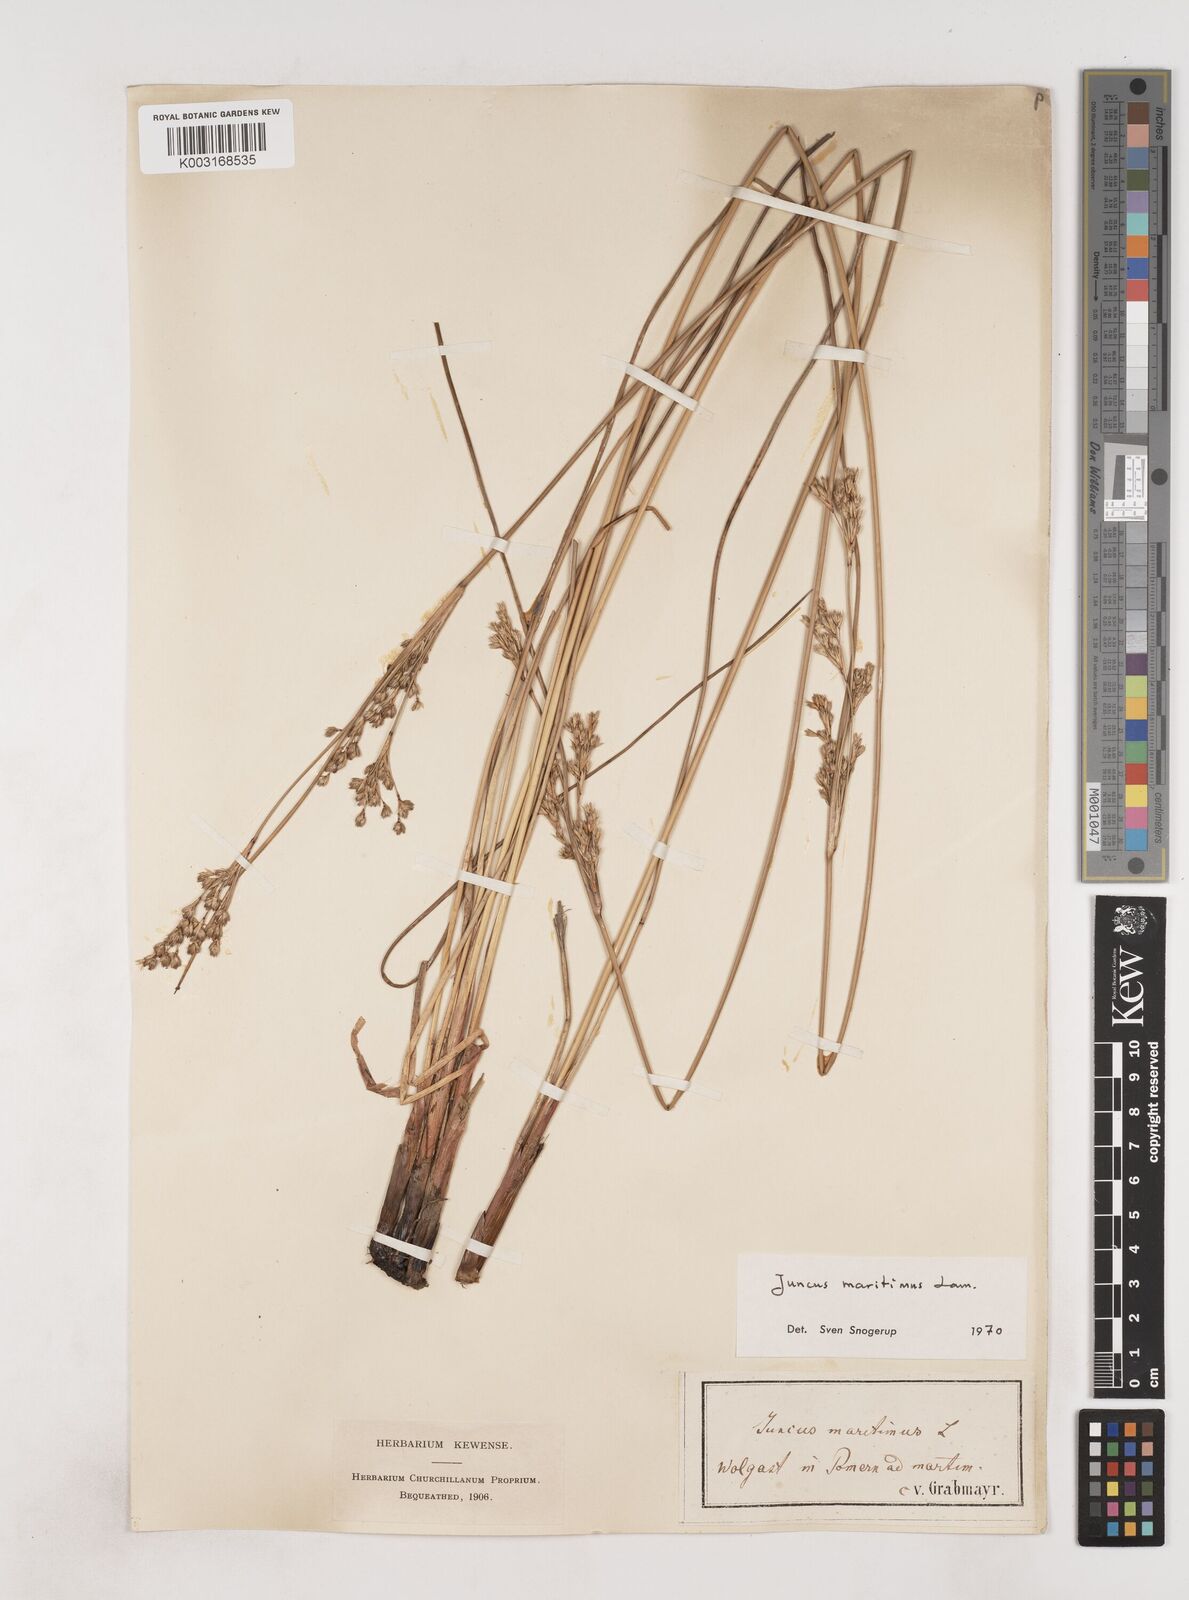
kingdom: Plantae
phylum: Tracheophyta
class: Liliopsida
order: Poales
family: Juncaceae
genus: Juncus
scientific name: Juncus maritimus
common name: Sea rush
